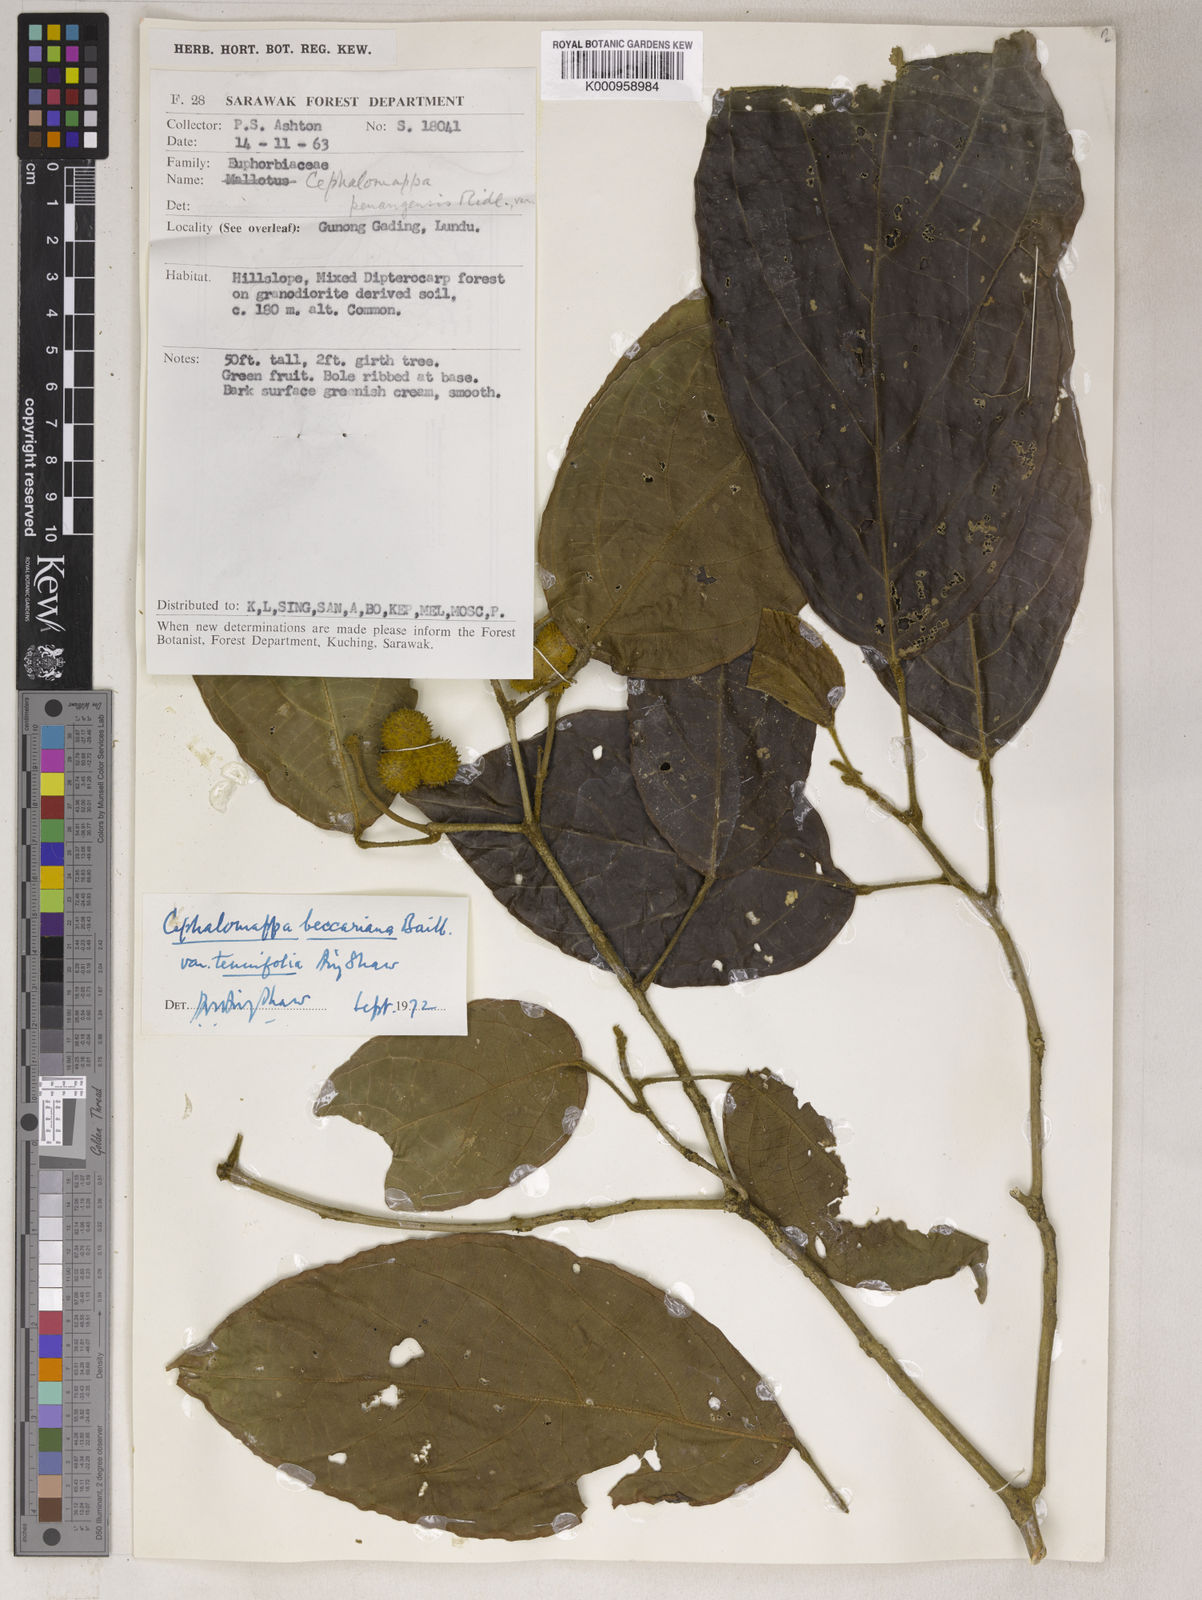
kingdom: Plantae
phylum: Tracheophyta
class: Magnoliopsida
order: Malpighiales
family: Euphorbiaceae
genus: Cephalomappa
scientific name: Cephalomappa beccariana
